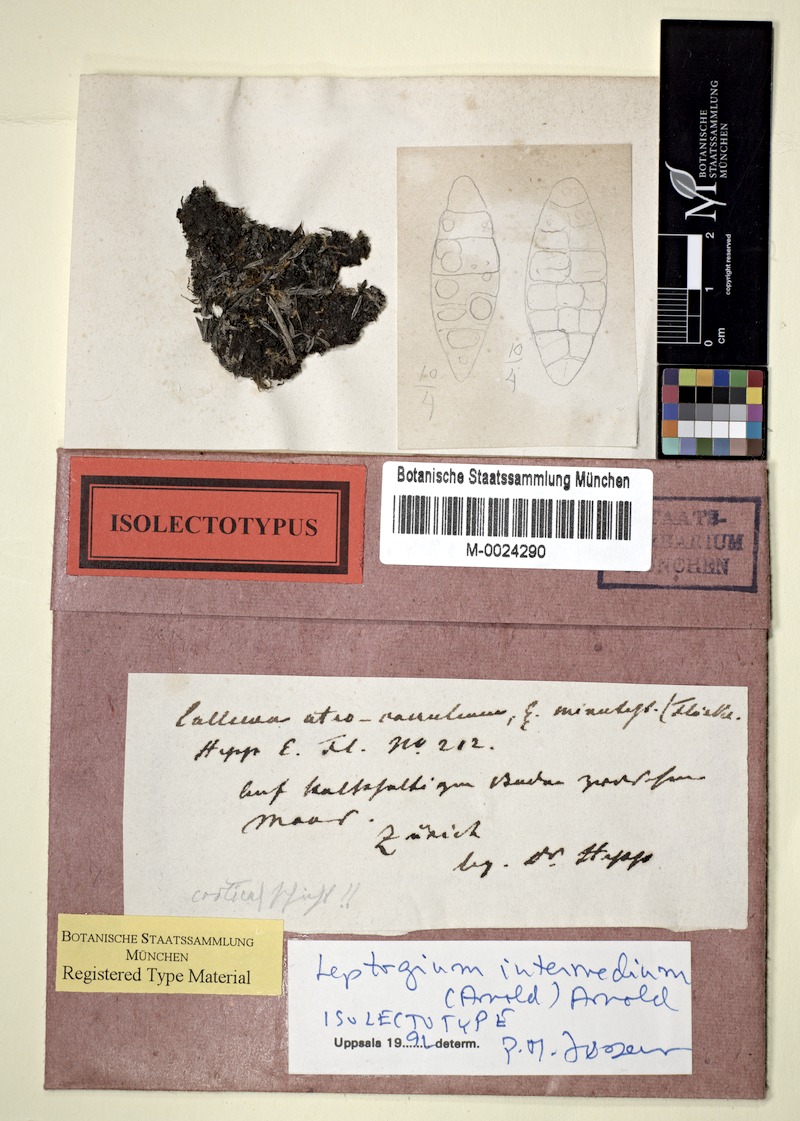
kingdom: Fungi
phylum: Ascomycota
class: Lecanoromycetes
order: Peltigerales
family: Collemataceae
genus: Scytinium
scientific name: Scytinium intermedium
